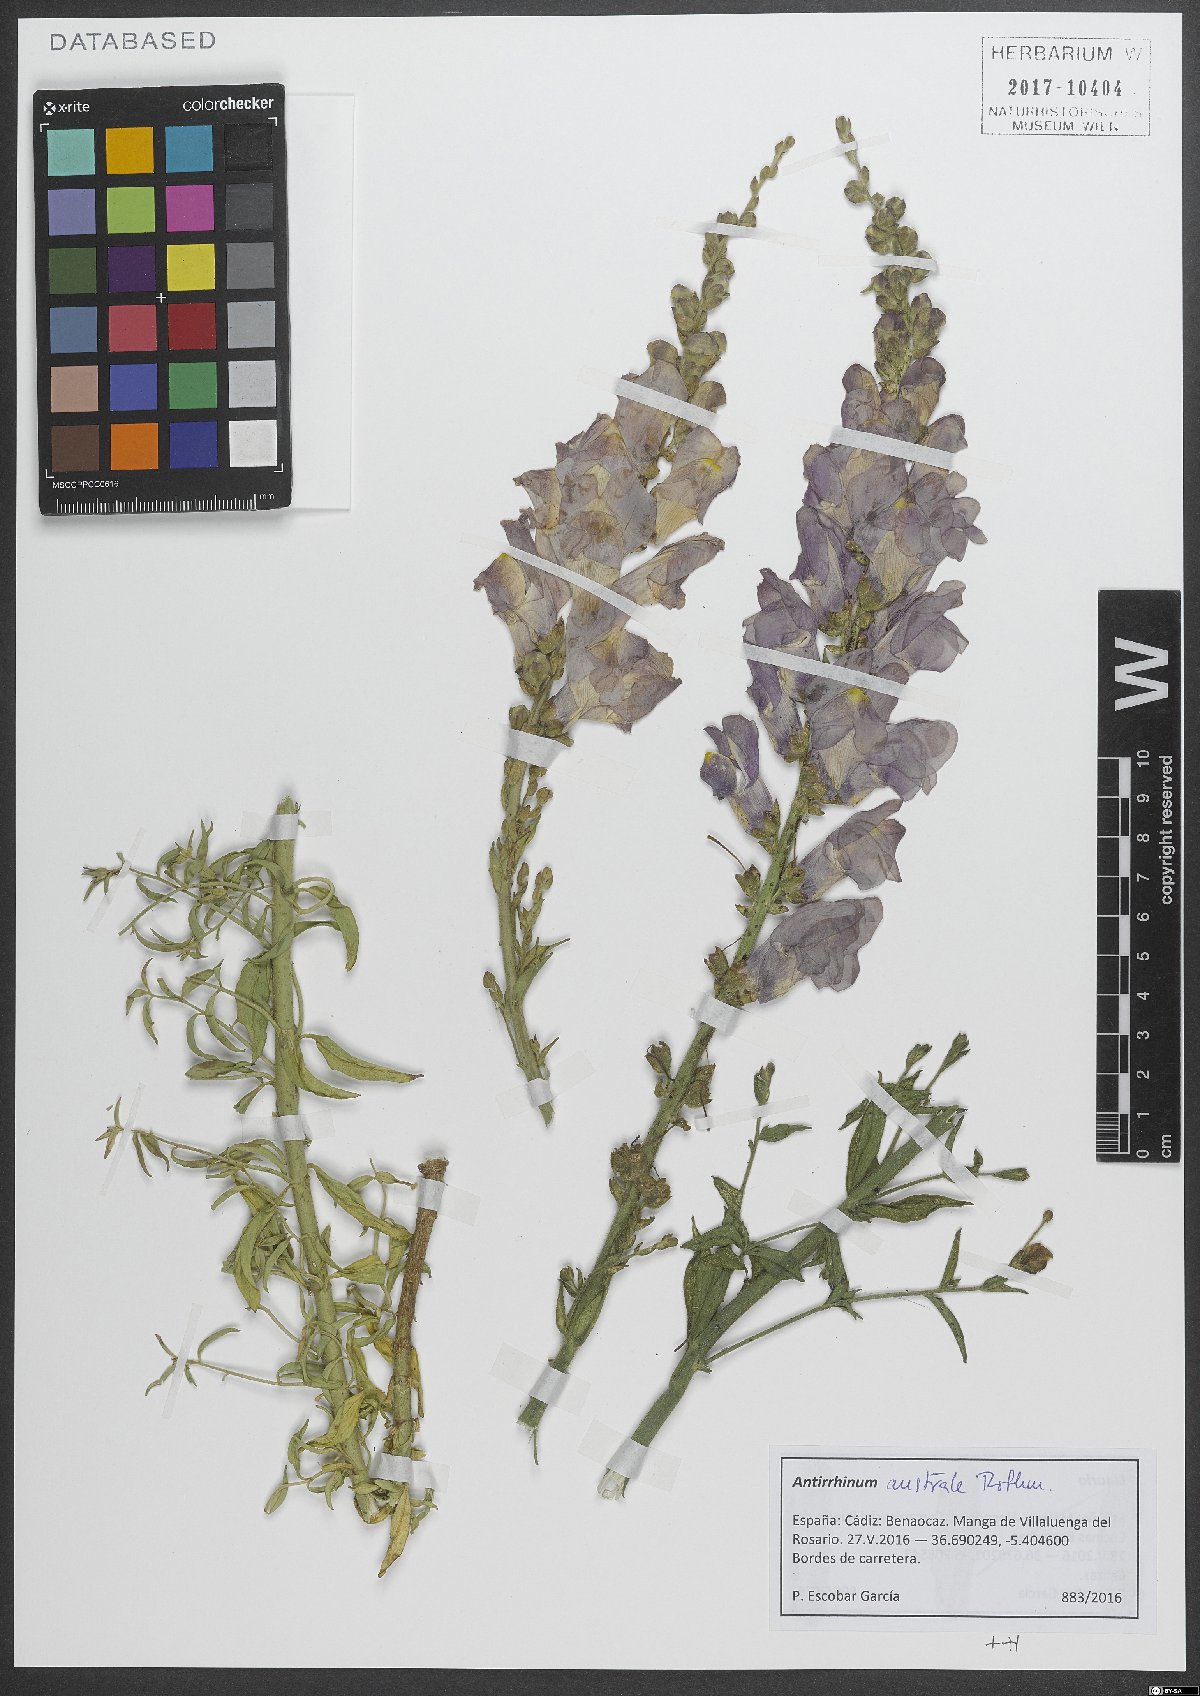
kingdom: Plantae
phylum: Tracheophyta
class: Magnoliopsida
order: Lamiales
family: Plantaginaceae
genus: Antirrhinum
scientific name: Antirrhinum australe
